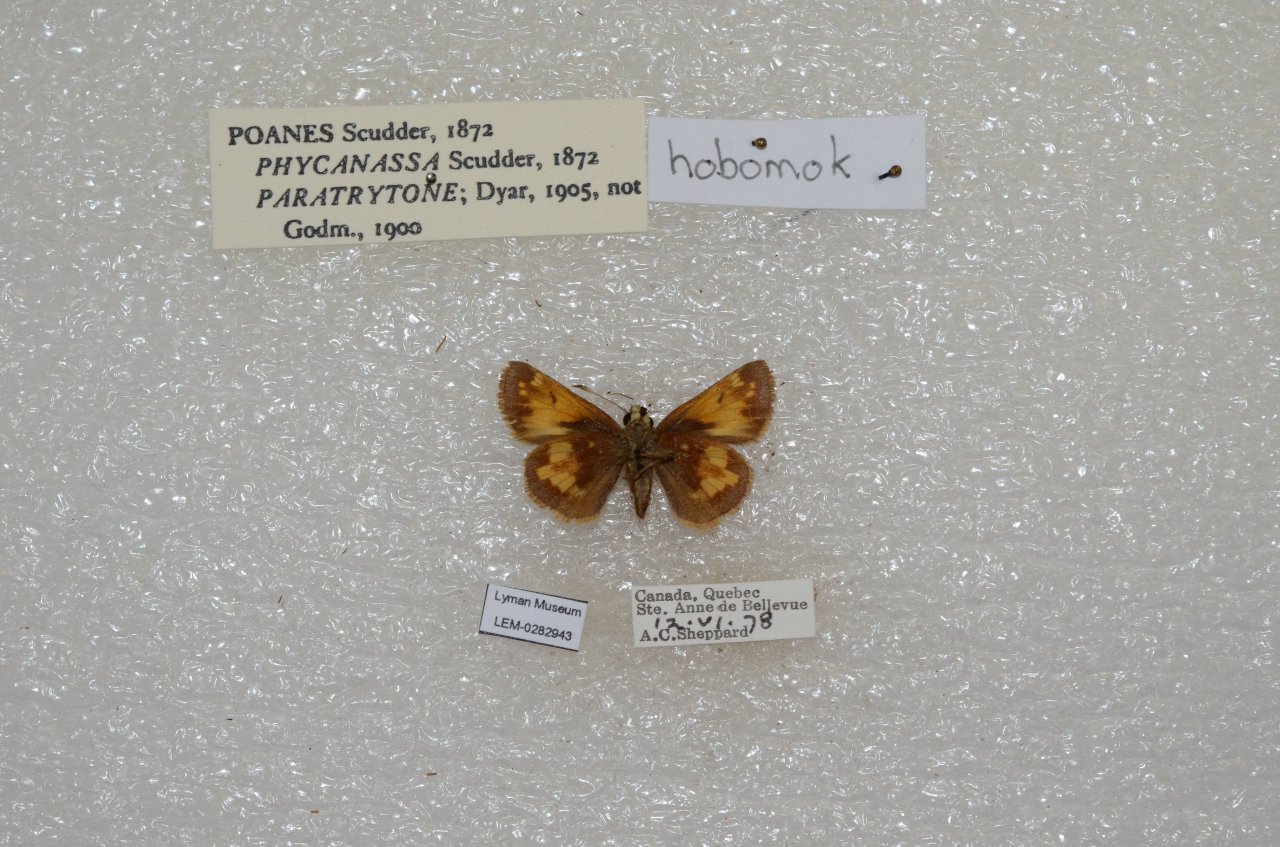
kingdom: Animalia
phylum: Arthropoda
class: Insecta
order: Lepidoptera
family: Hesperiidae
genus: Lon
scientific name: Lon hobomok
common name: Hobomok Skipper
